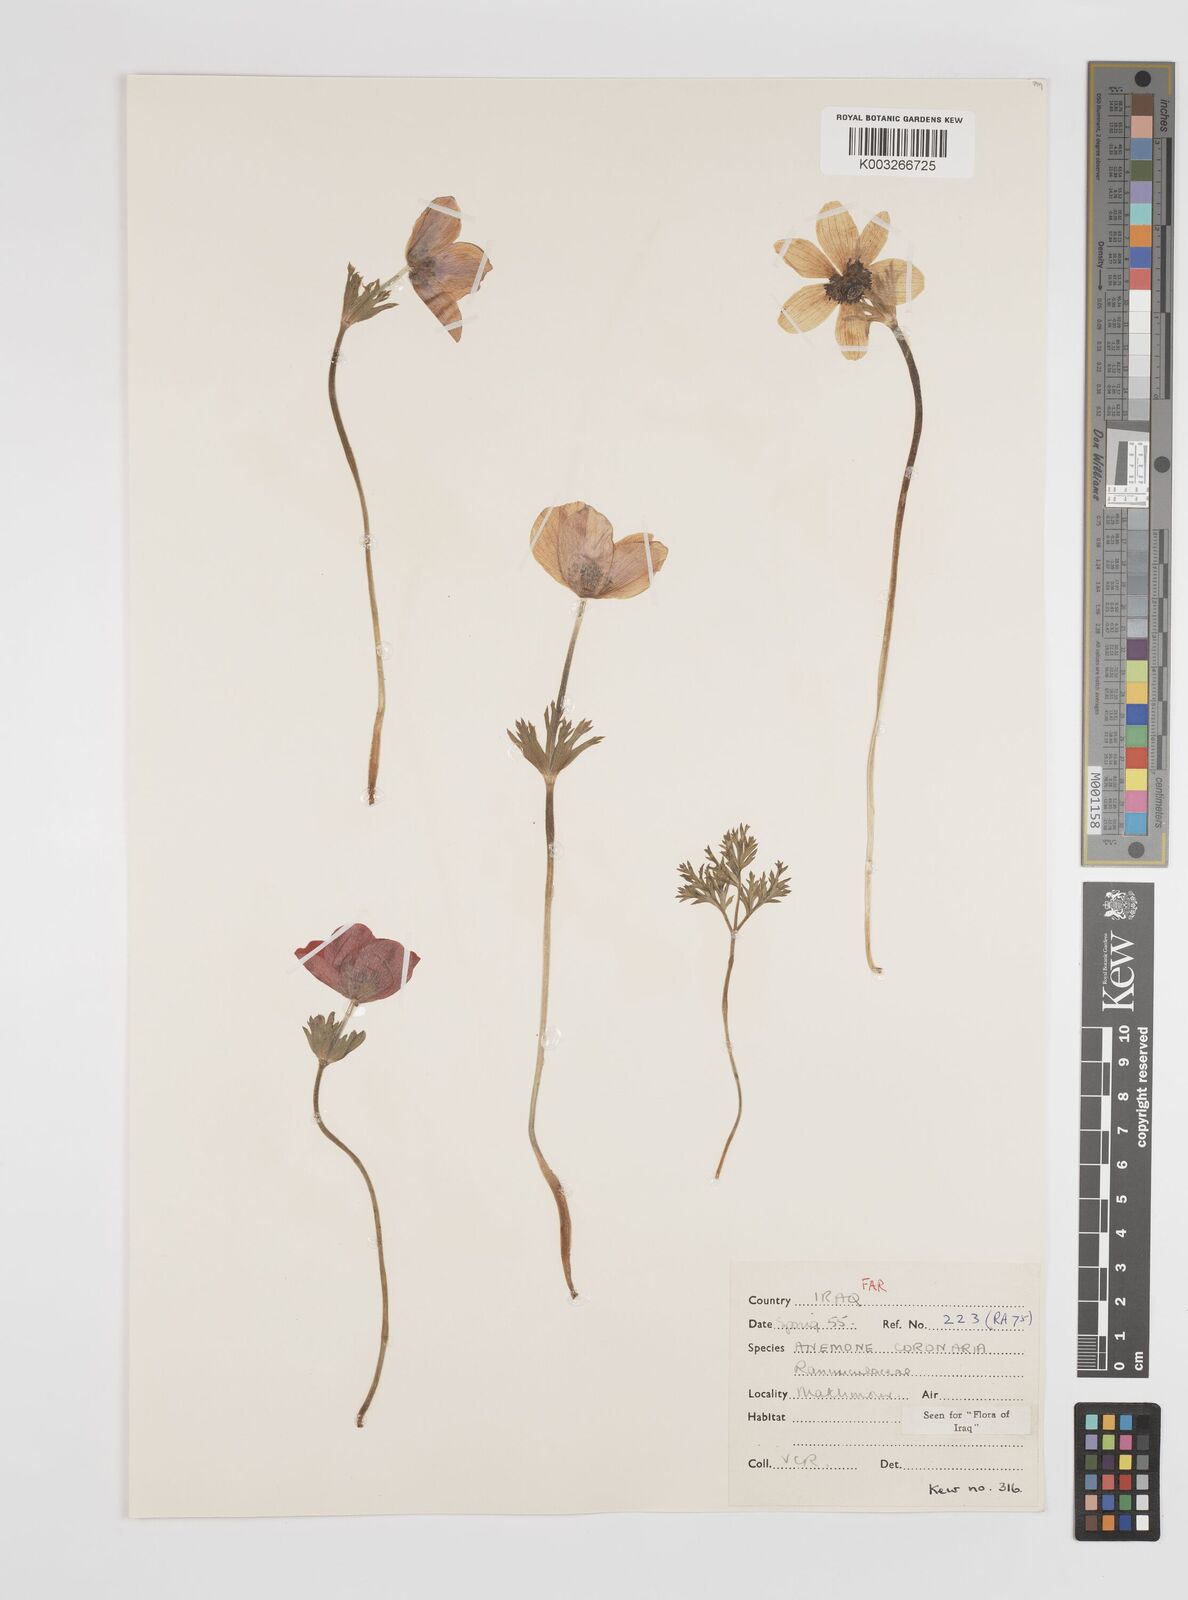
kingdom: Plantae
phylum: Tracheophyta
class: Magnoliopsida
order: Ranunculales
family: Ranunculaceae
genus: Anemone
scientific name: Anemone coronaria
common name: Poppy anemone
